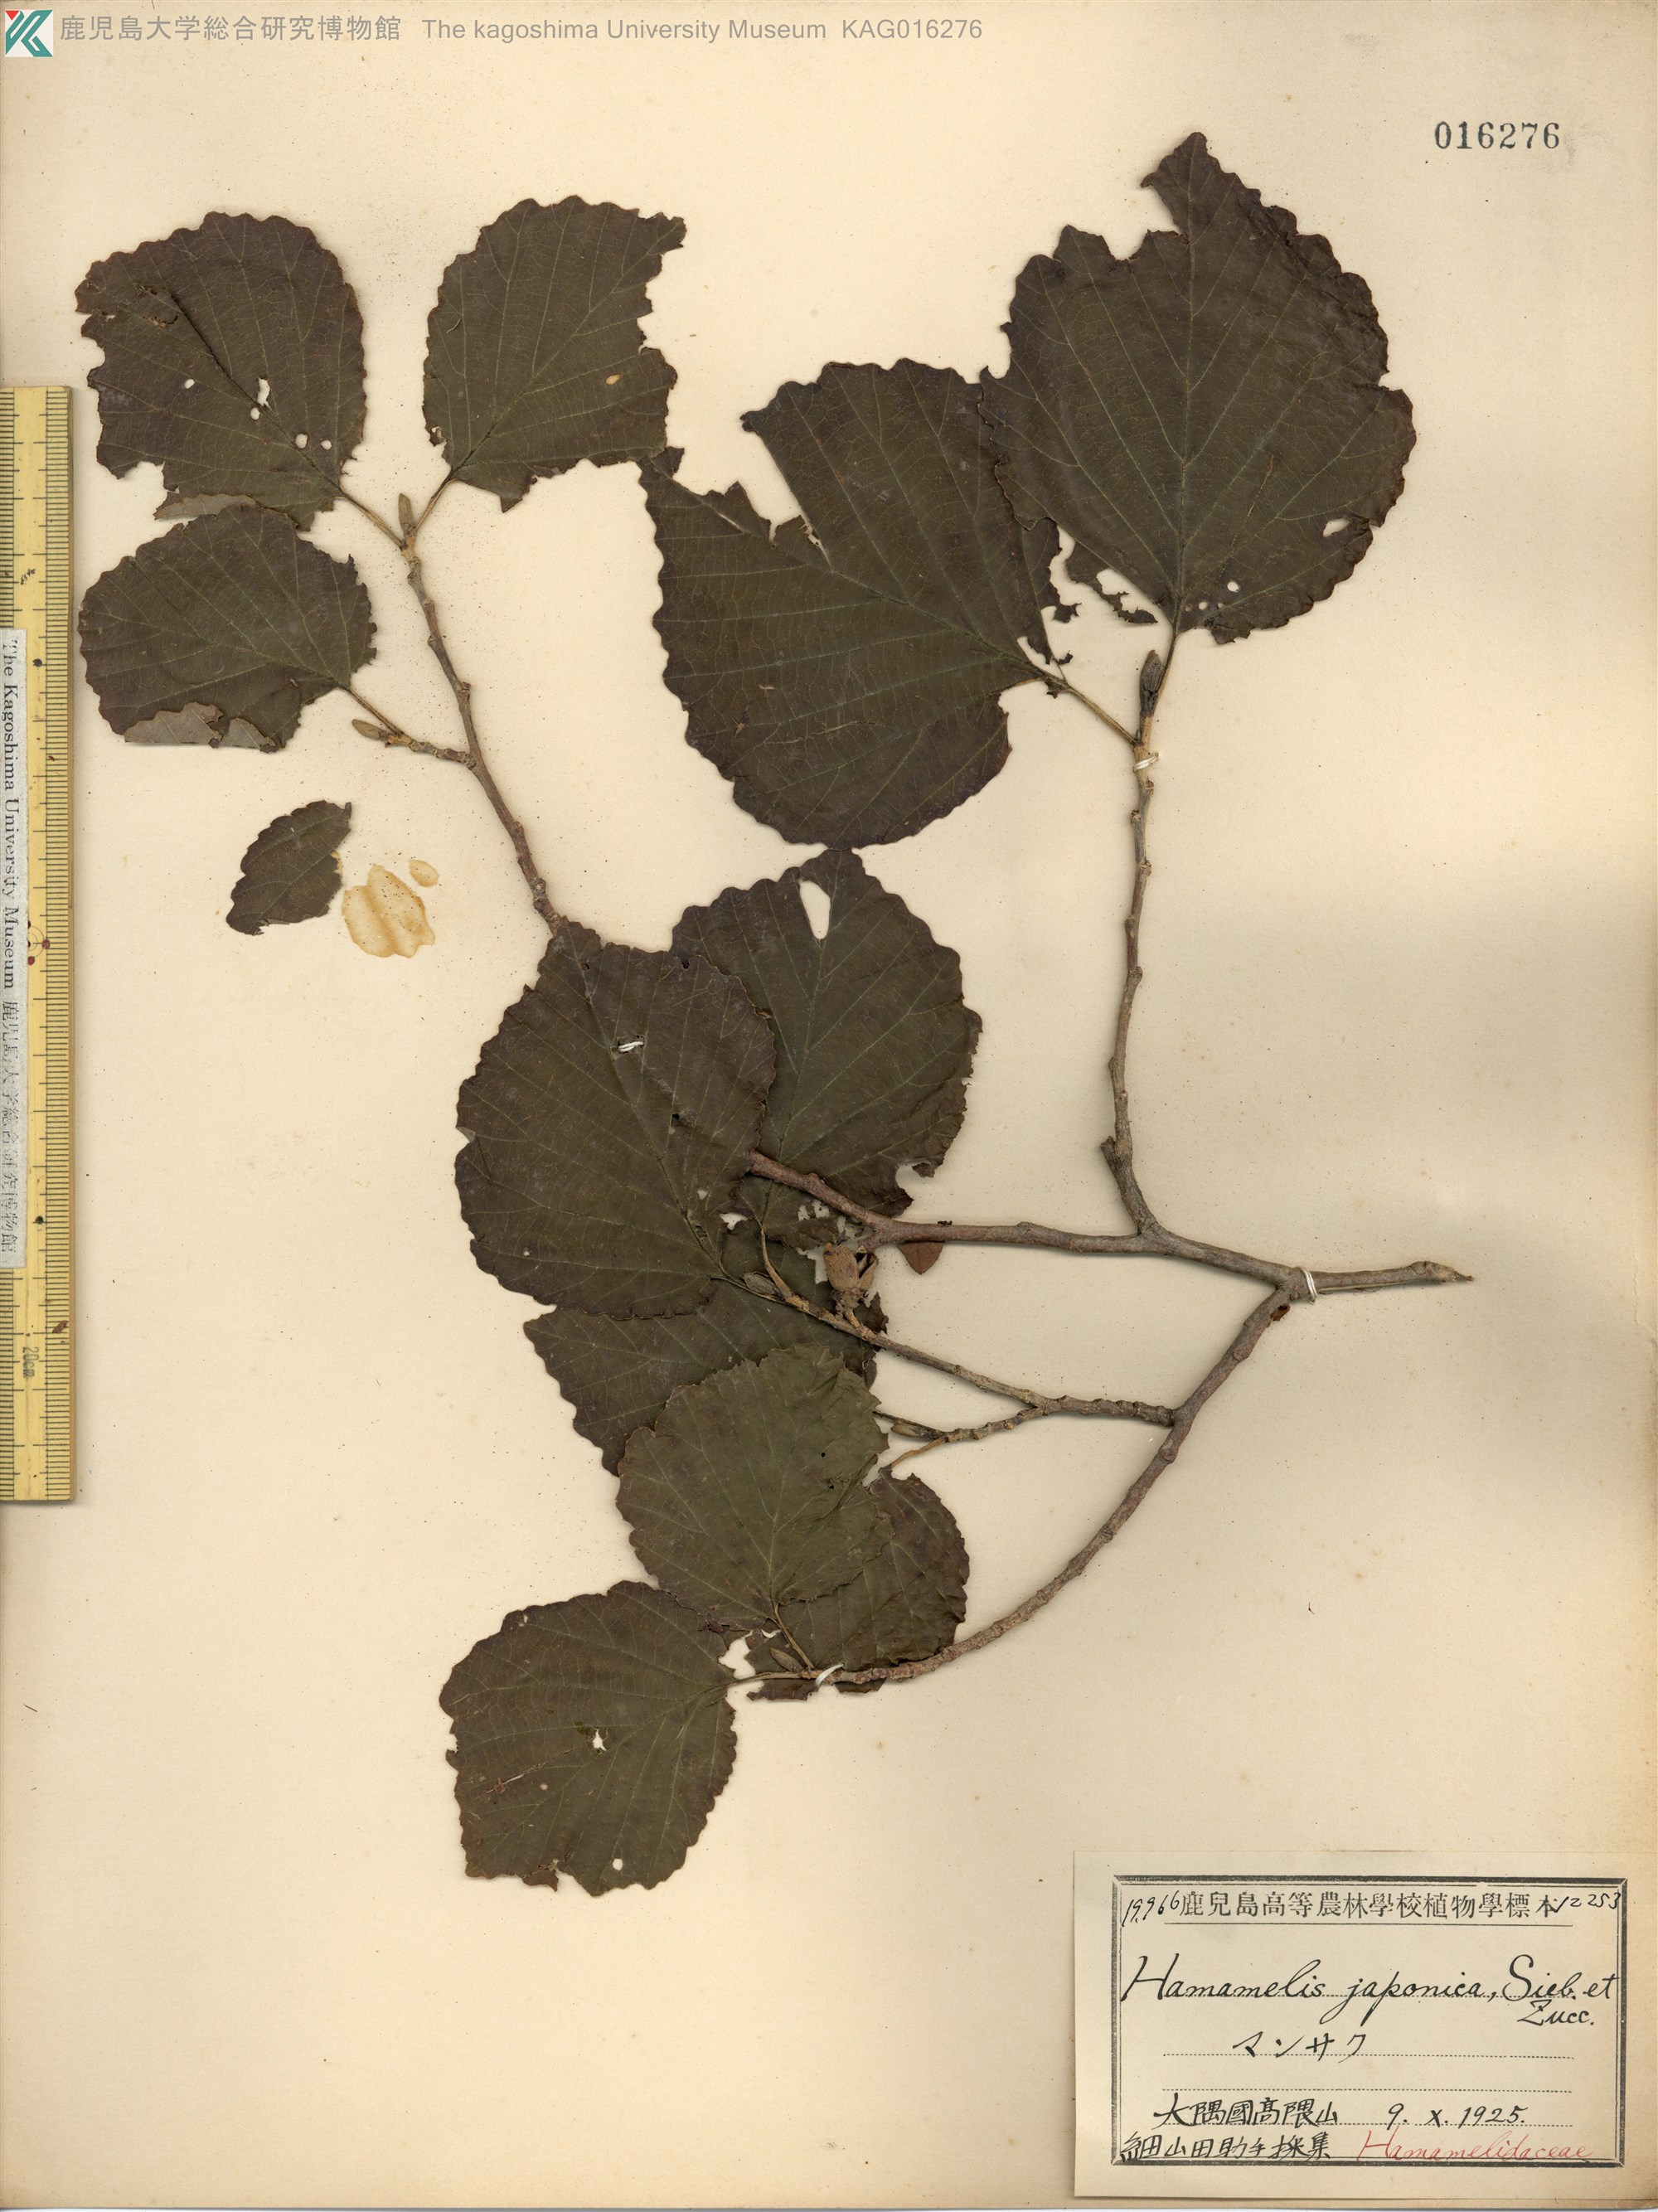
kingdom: Plantae
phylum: Tracheophyta
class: Magnoliopsida
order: Saxifragales
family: Hamamelidaceae
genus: Hamamelis
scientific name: Hamamelis japonica
